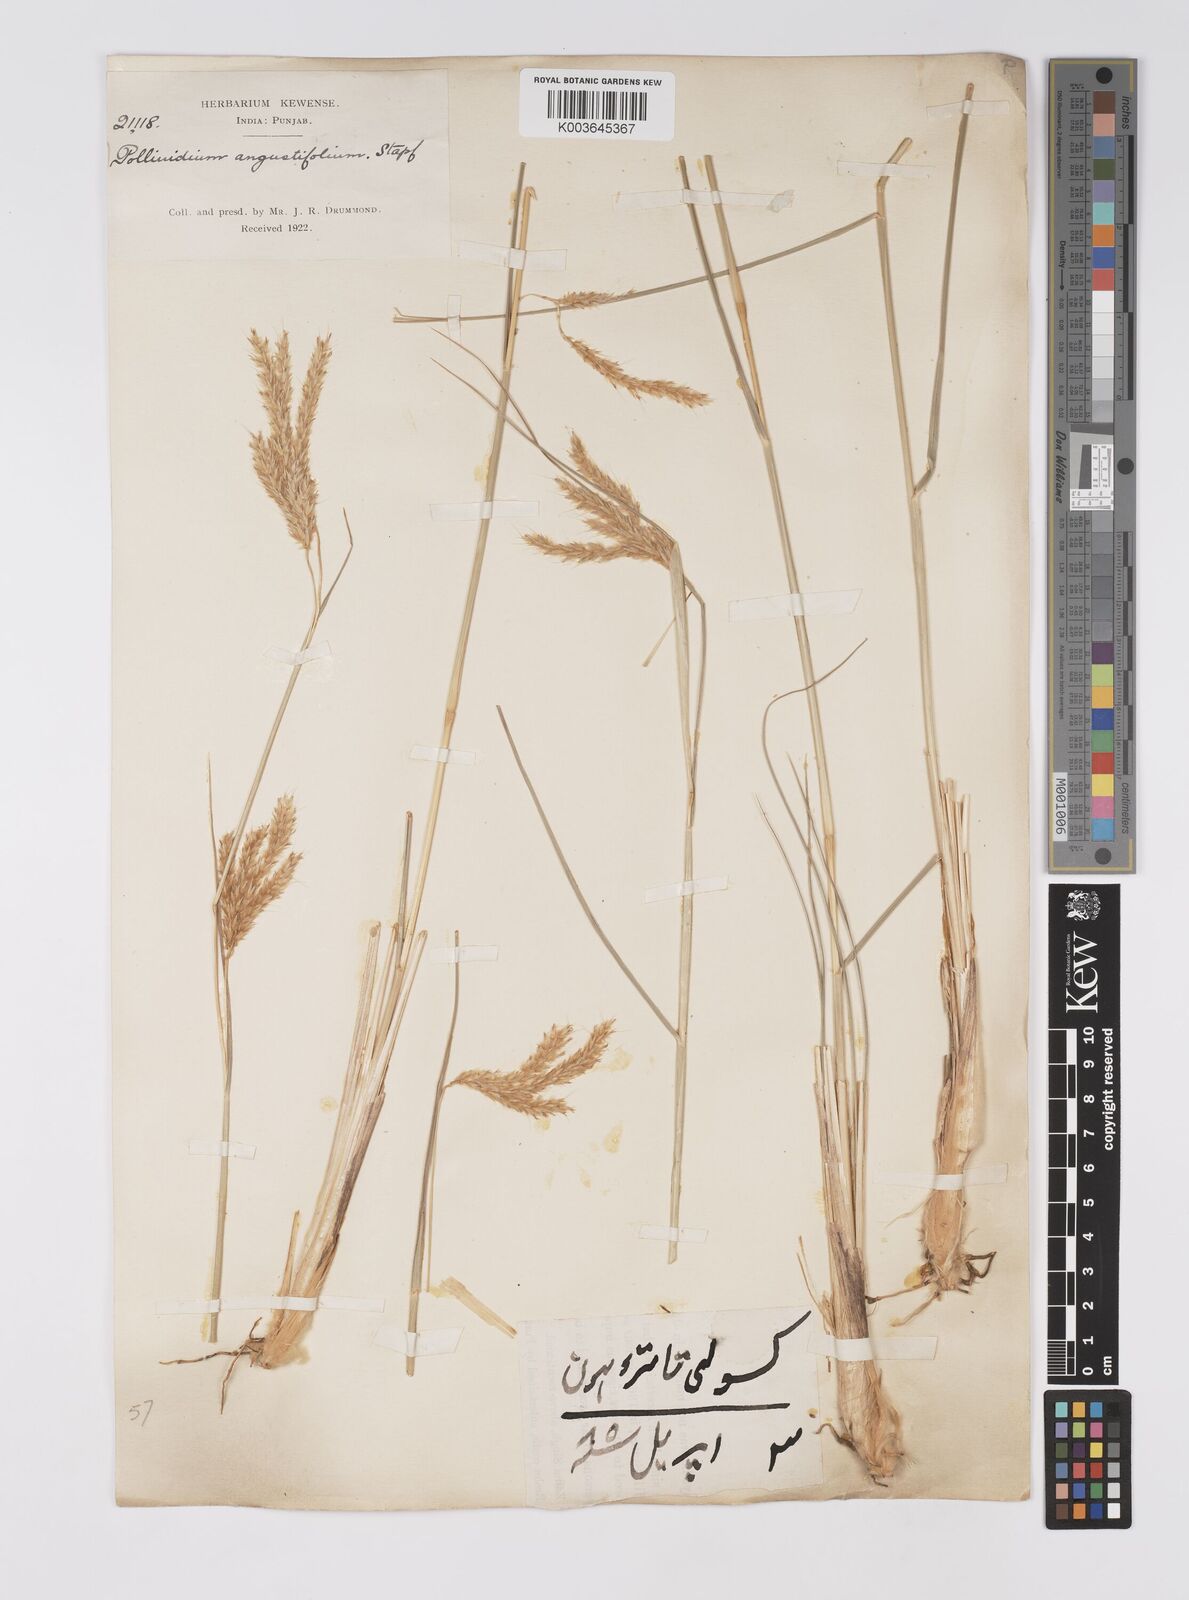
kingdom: Plantae
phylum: Tracheophyta
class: Liliopsida
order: Poales
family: Poaceae
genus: Eulaliopsis
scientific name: Eulaliopsis binata
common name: Baib grass
